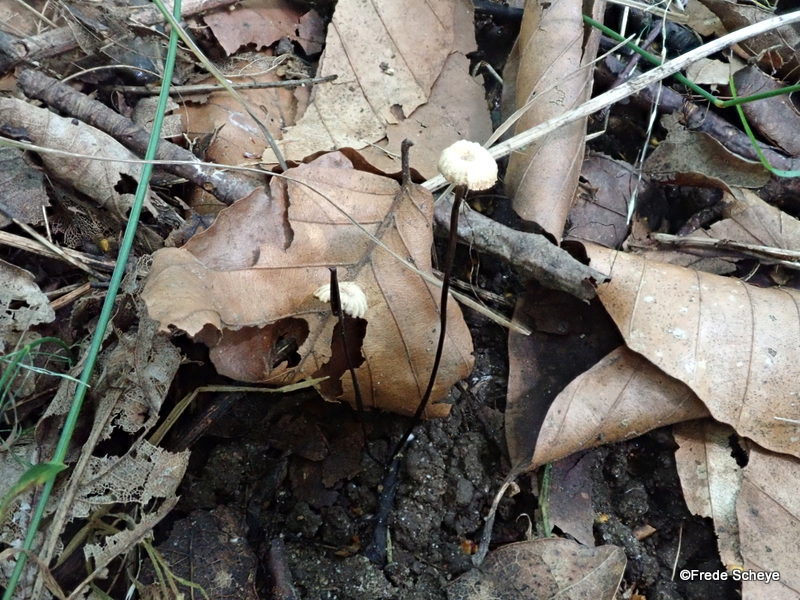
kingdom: Fungi
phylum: Basidiomycota
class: Agaricomycetes
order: Agaricales
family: Marasmiaceae
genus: Marasmius
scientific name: Marasmius rotula
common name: hjul-bruskhat
